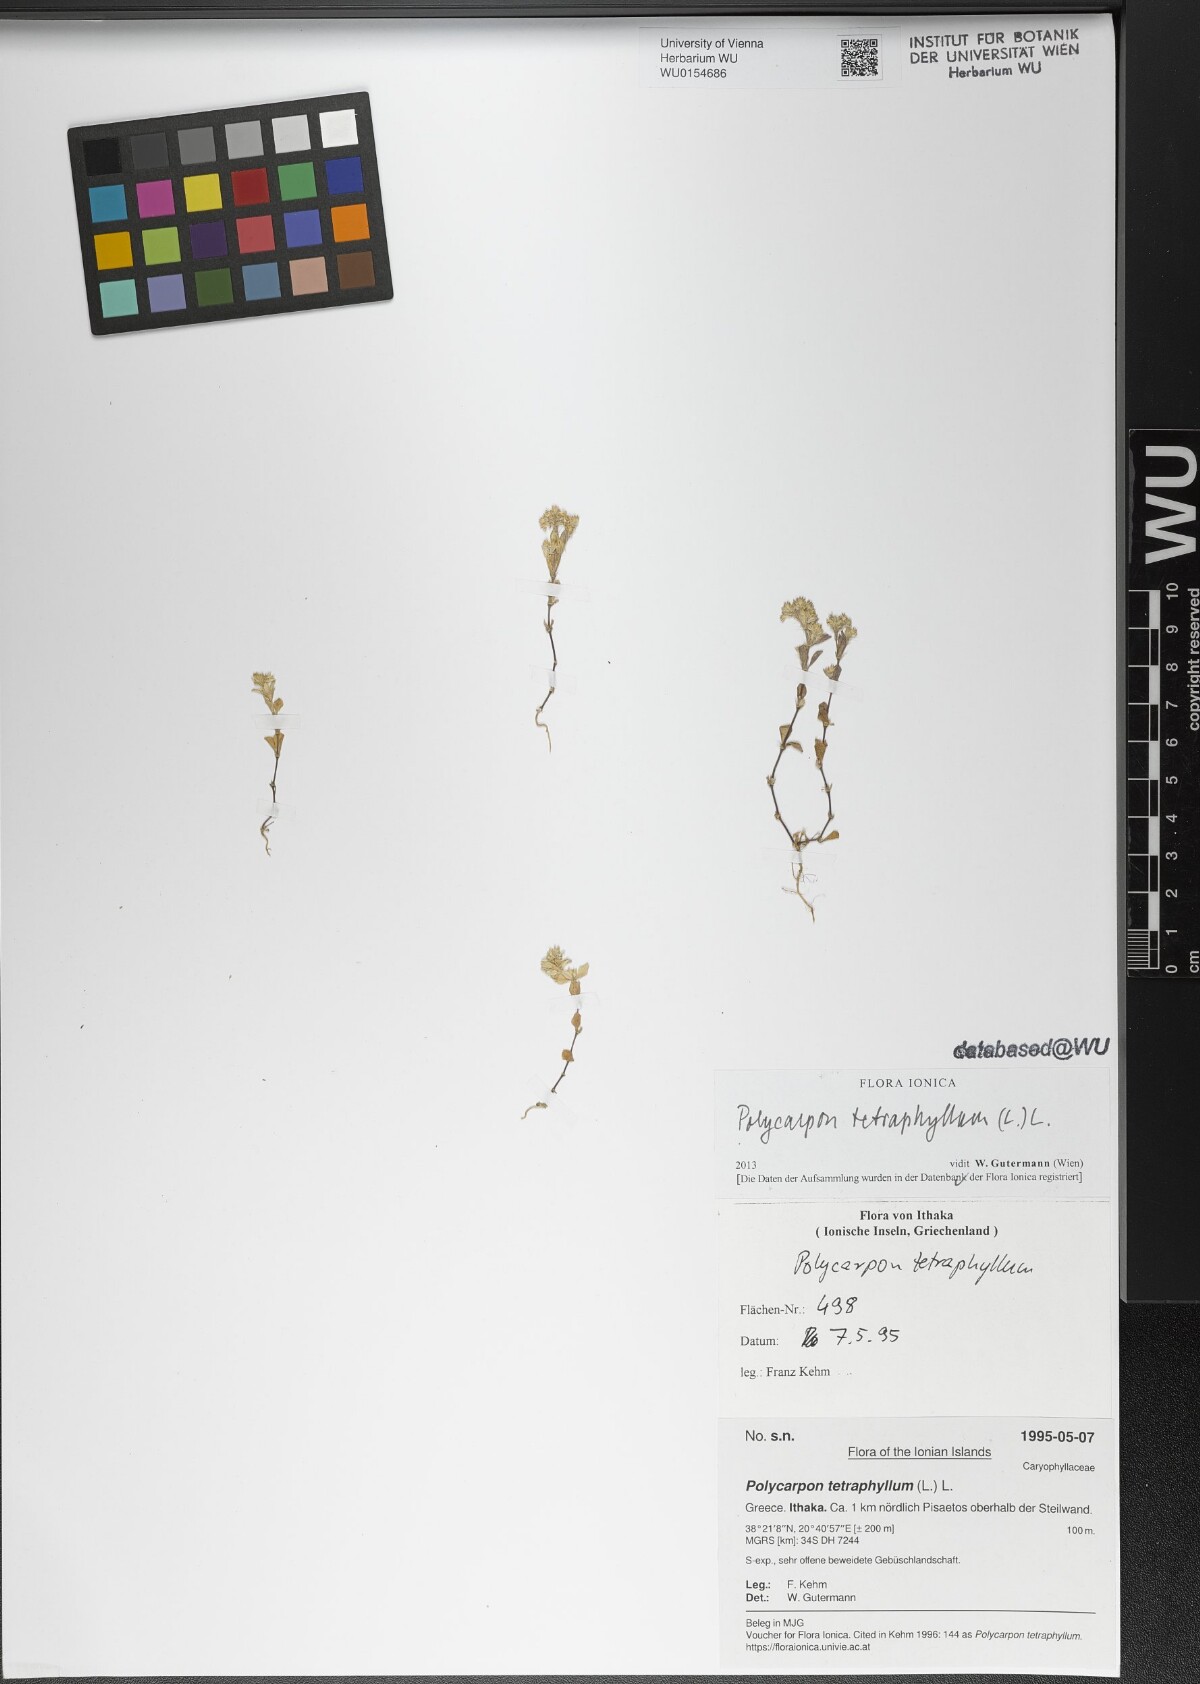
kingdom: Plantae
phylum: Tracheophyta
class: Magnoliopsida
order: Caryophyllales
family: Caryophyllaceae
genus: Polycarpon
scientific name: Polycarpon tetraphyllum
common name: Four-leaved all-seed
